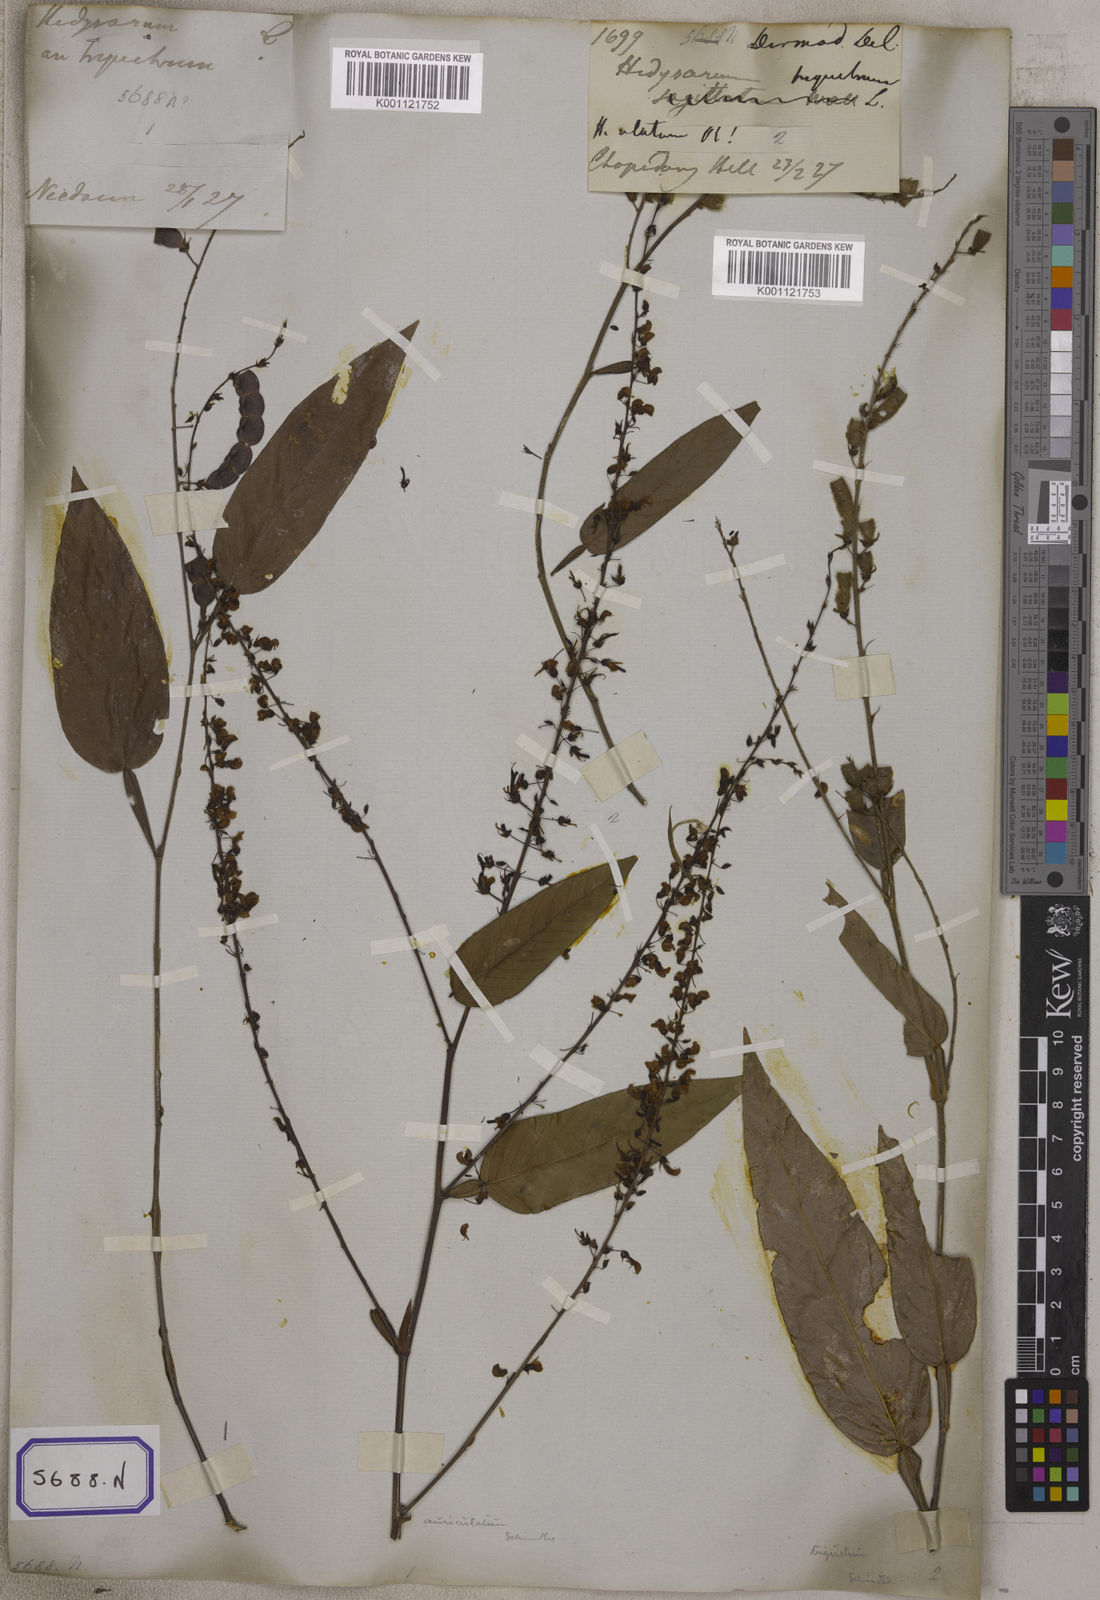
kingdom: Plantae
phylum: Tracheophyta
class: Magnoliopsida
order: Fabales
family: Fabaceae
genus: Tadehagi
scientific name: Tadehagi triquetrum
